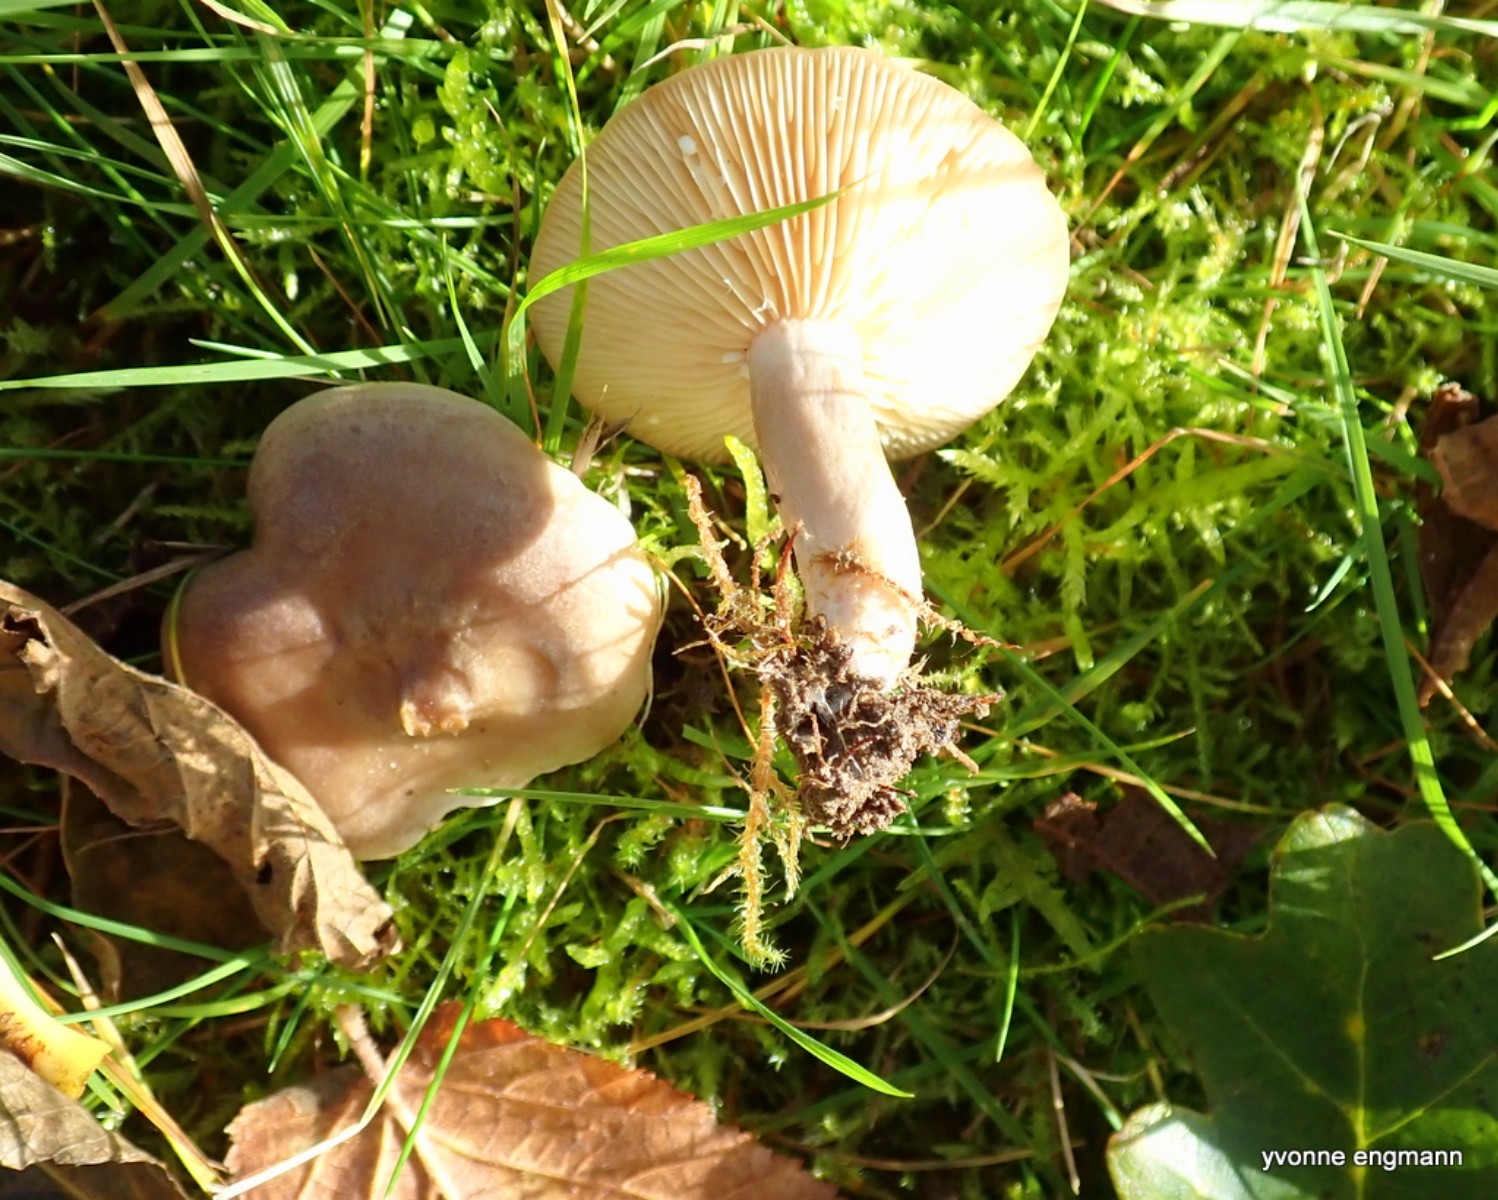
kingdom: Fungi
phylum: Basidiomycota
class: Agaricomycetes
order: Russulales
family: Russulaceae
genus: Lactarius
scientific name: Lactarius pyrogalus
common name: hassel-mælkehat
